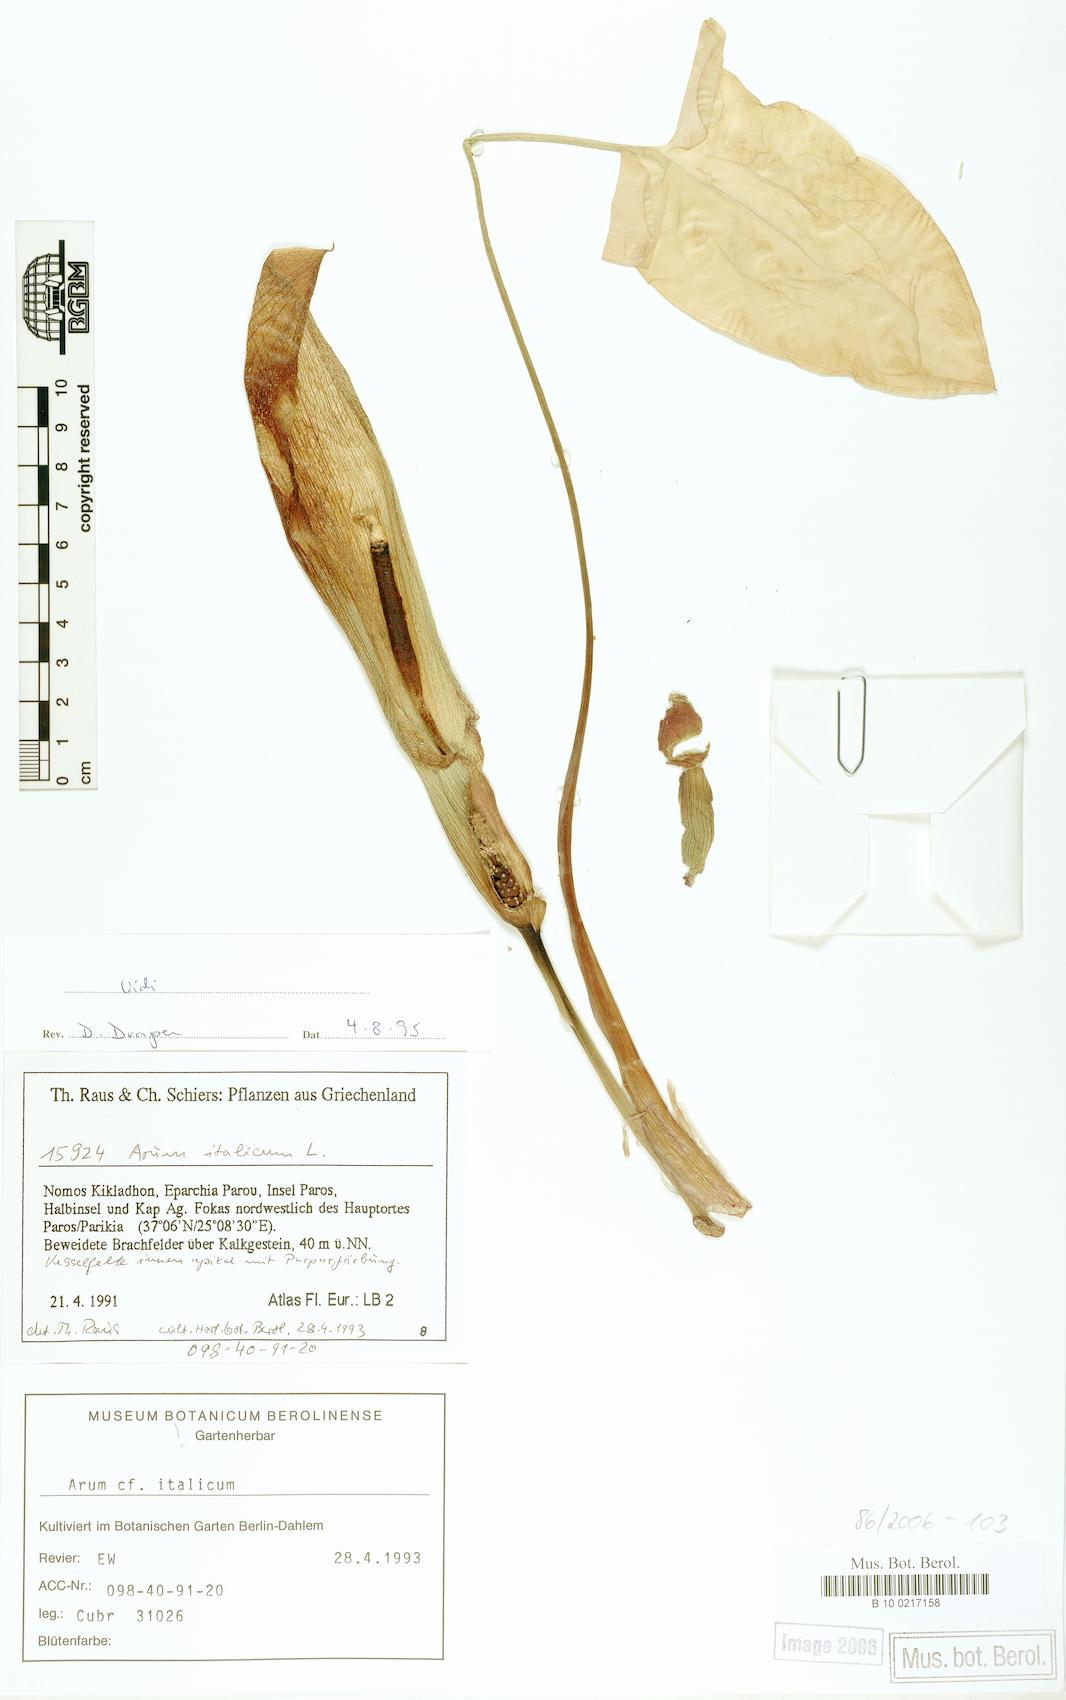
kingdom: Plantae
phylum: Tracheophyta
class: Liliopsida
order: Alismatales
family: Araceae
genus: Arum
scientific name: Arum italicum
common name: Italian lords-and-ladies
